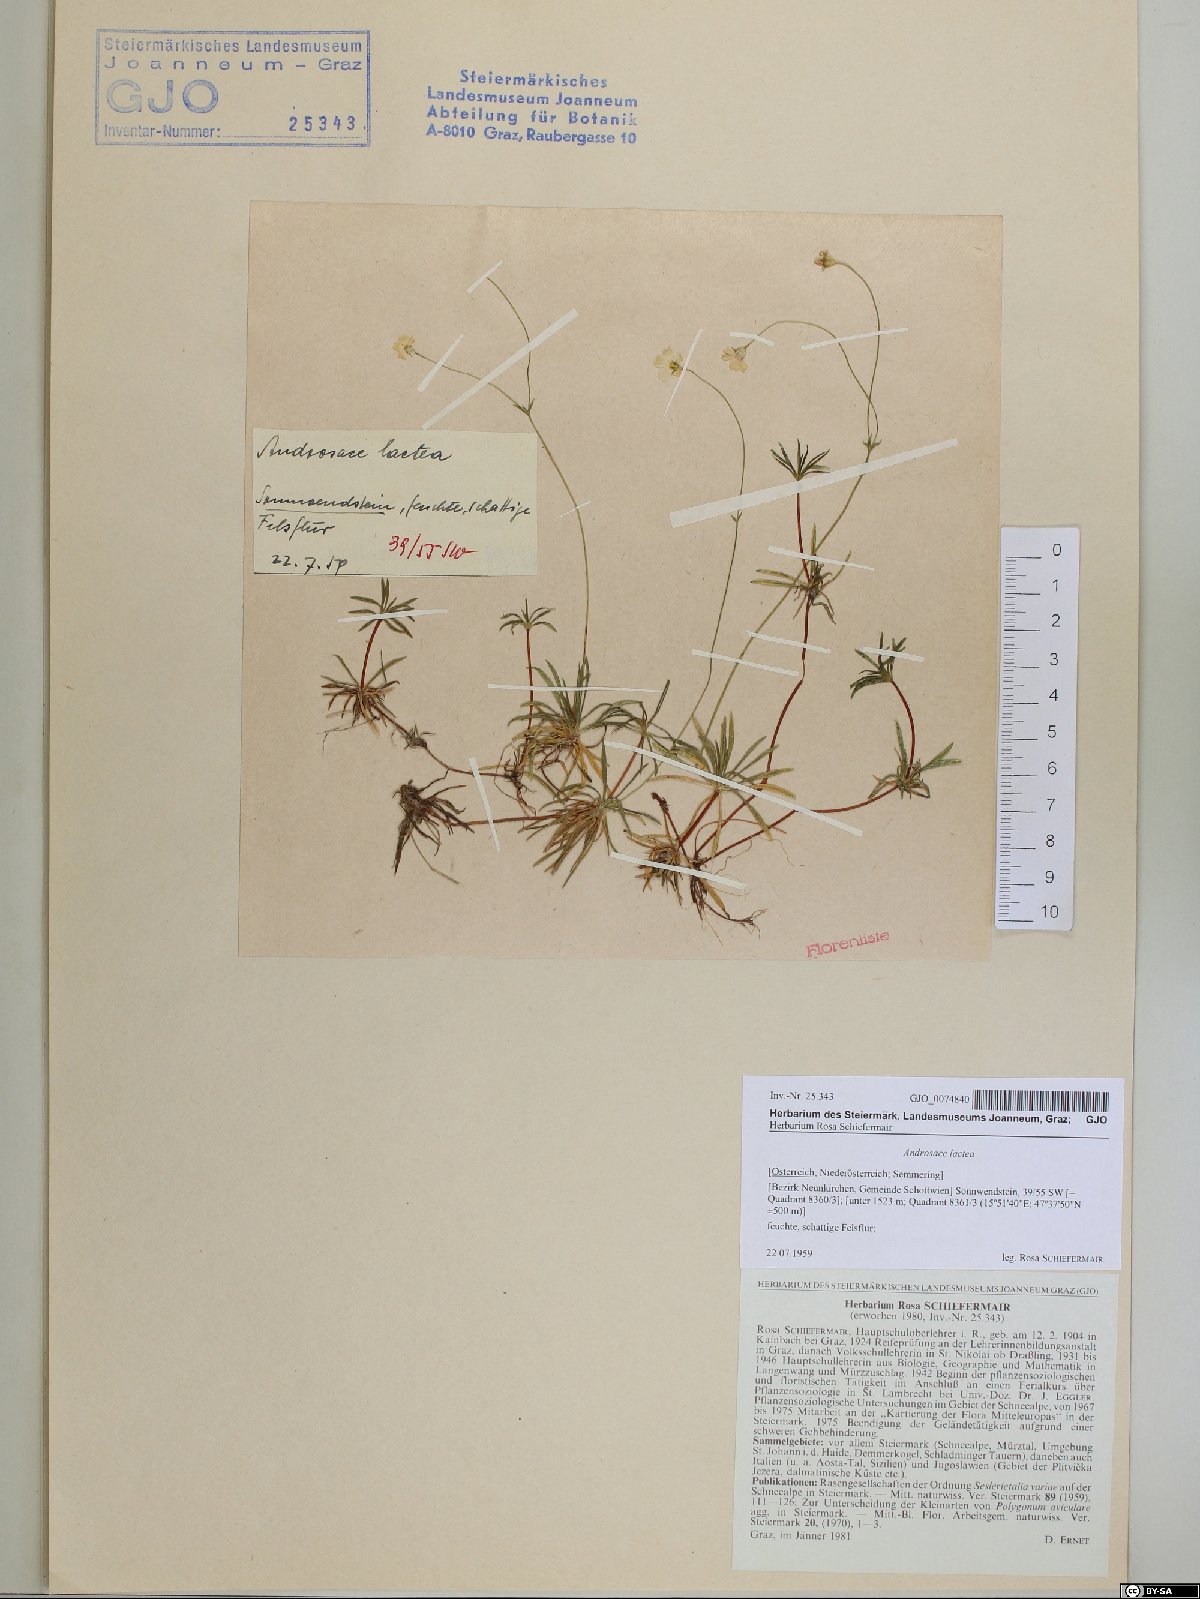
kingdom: Plantae
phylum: Tracheophyta
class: Magnoliopsida
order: Ericales
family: Primulaceae
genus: Androsace
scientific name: Androsace lactea
